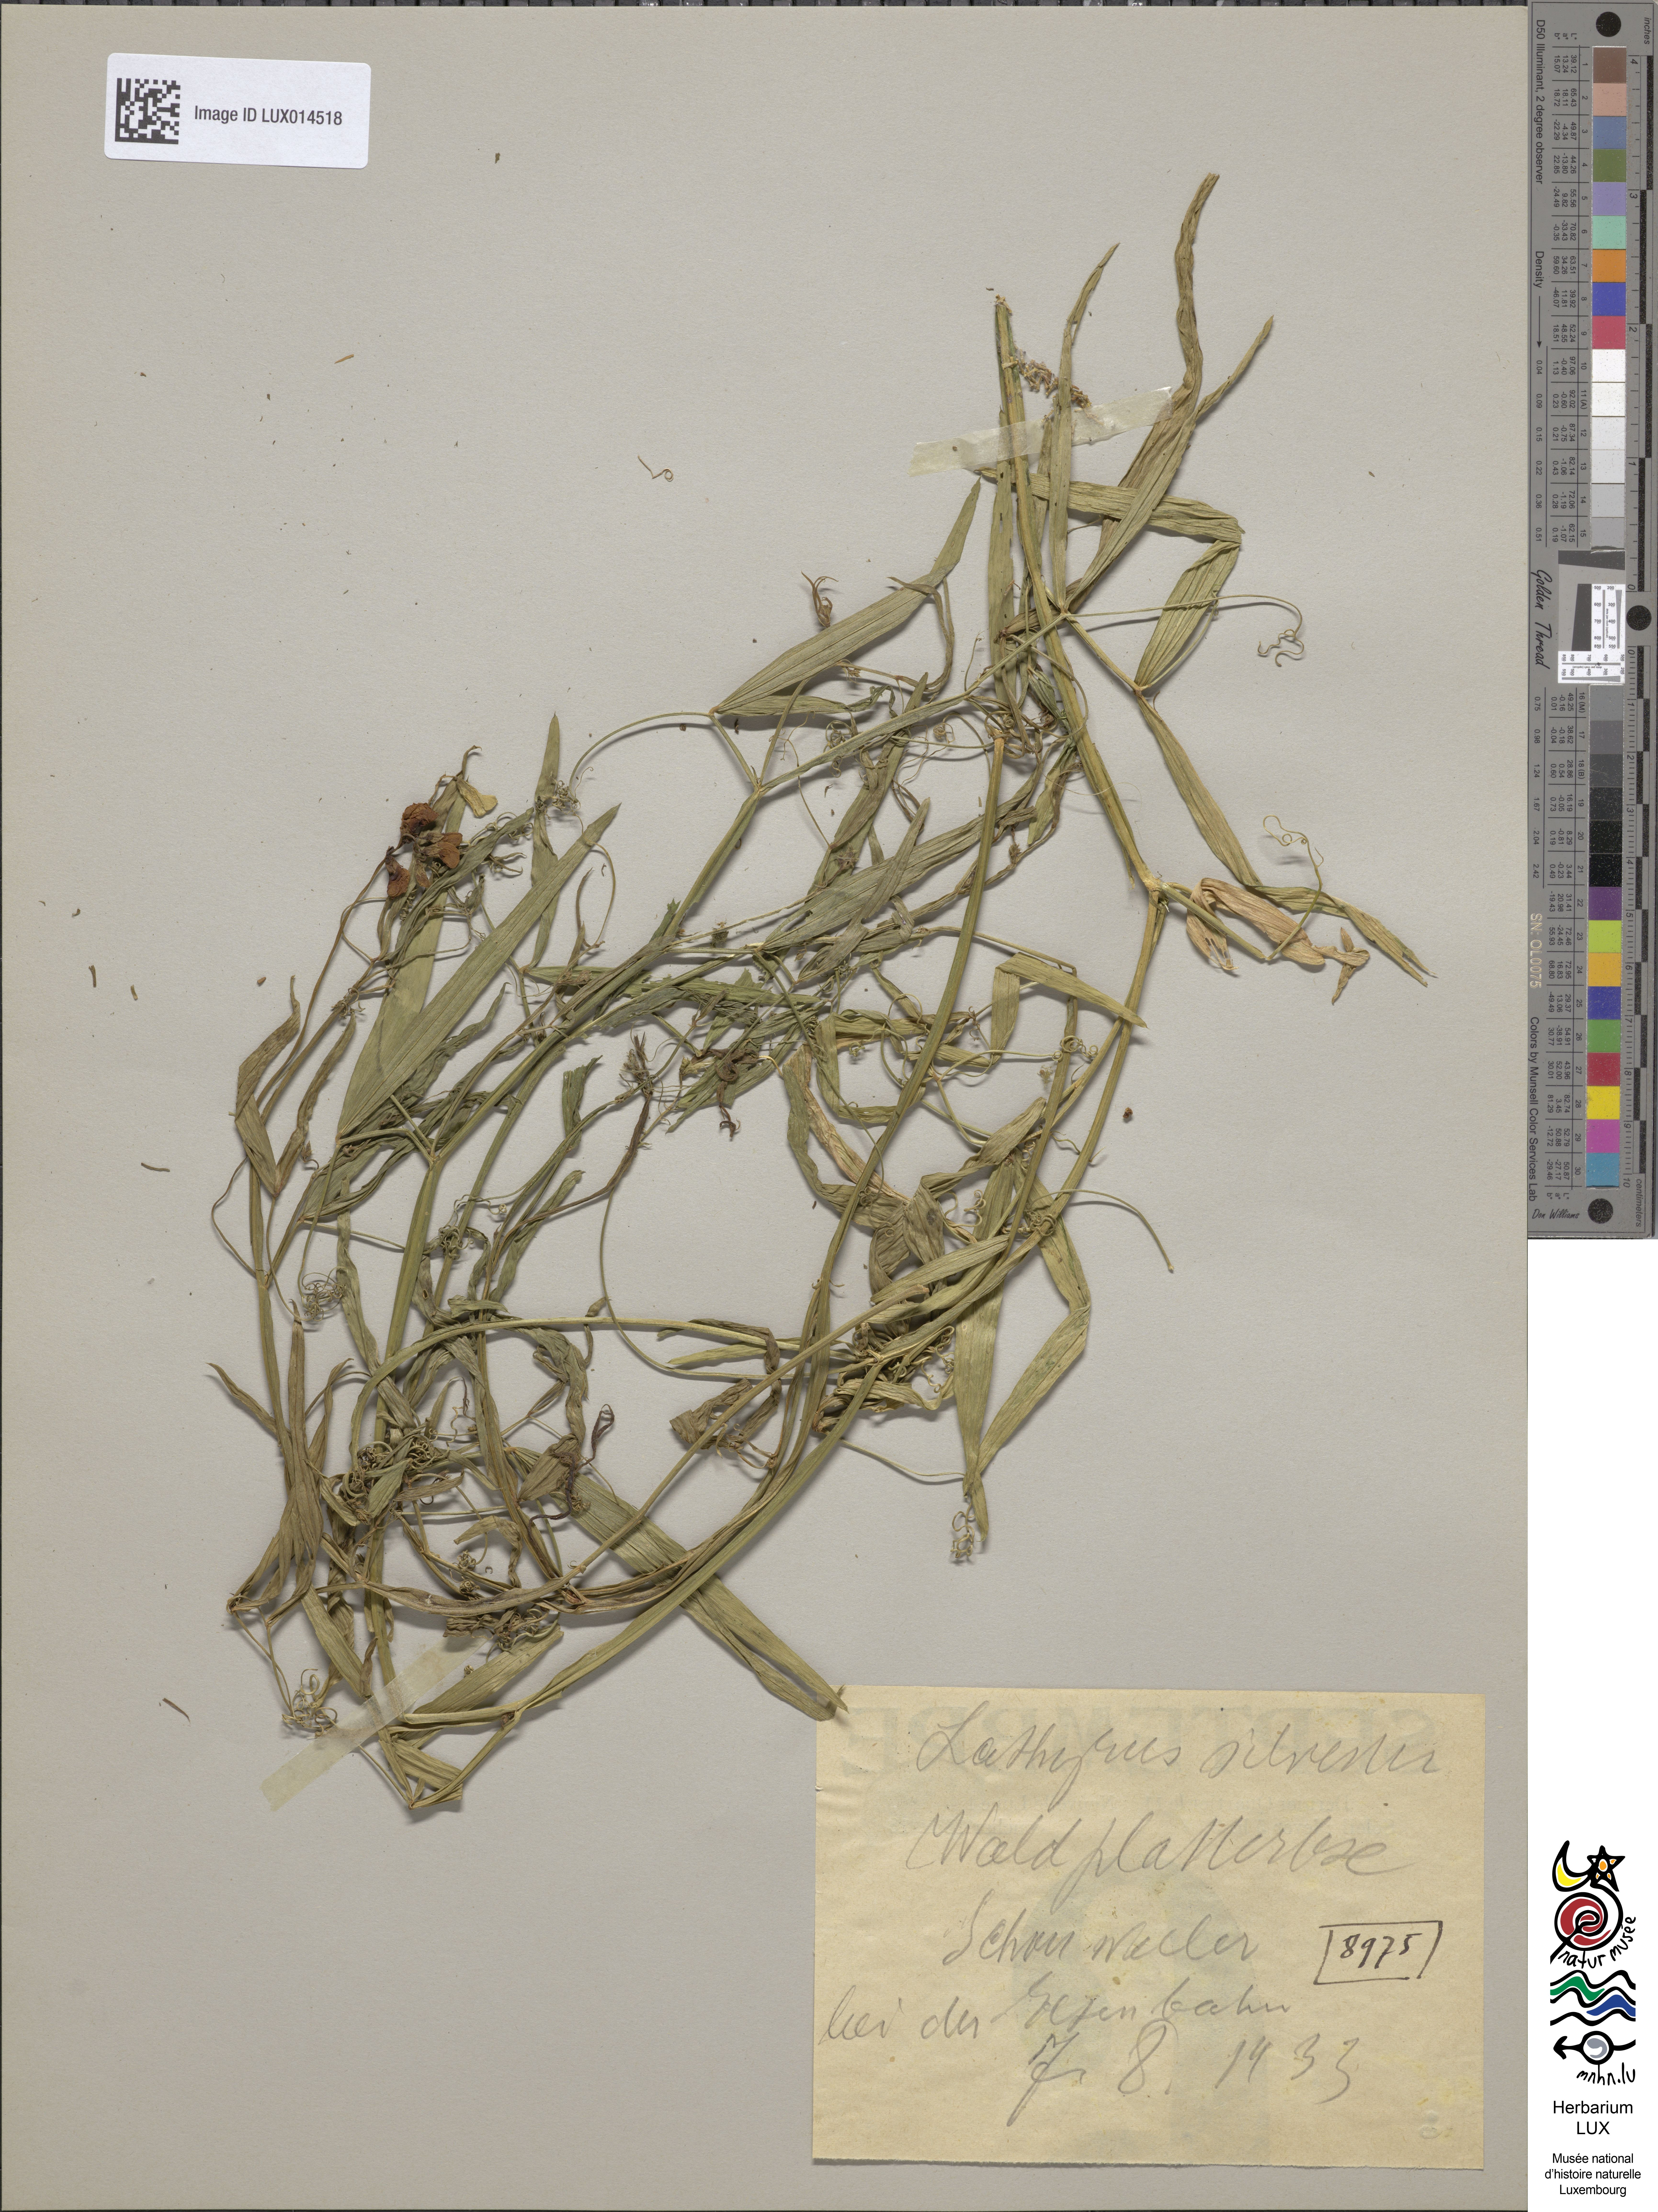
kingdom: Plantae
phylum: Tracheophyta
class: Magnoliopsida
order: Fabales
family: Fabaceae
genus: Lathyrus
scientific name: Lathyrus sylvestris
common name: Flat pea
